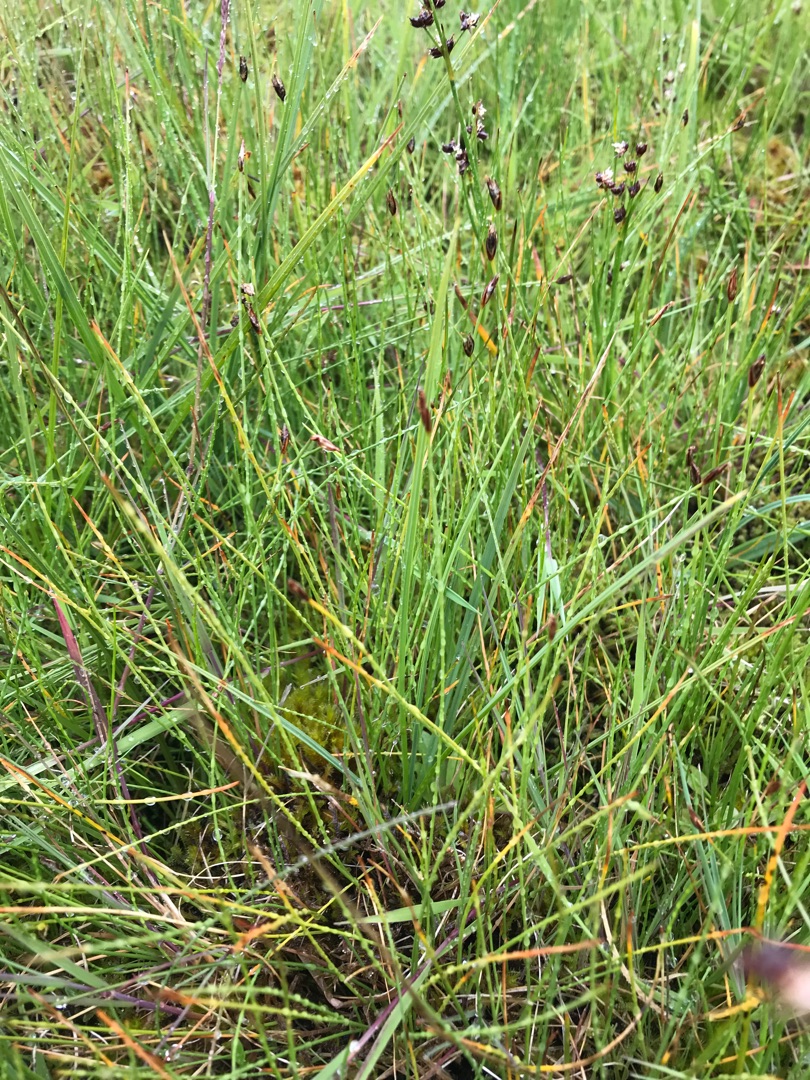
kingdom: Plantae
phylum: Tracheophyta
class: Liliopsida
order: Poales
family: Cyperaceae
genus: Eleocharis
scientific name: Eleocharis quinqueflora
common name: Fåblomstret kogleaks
